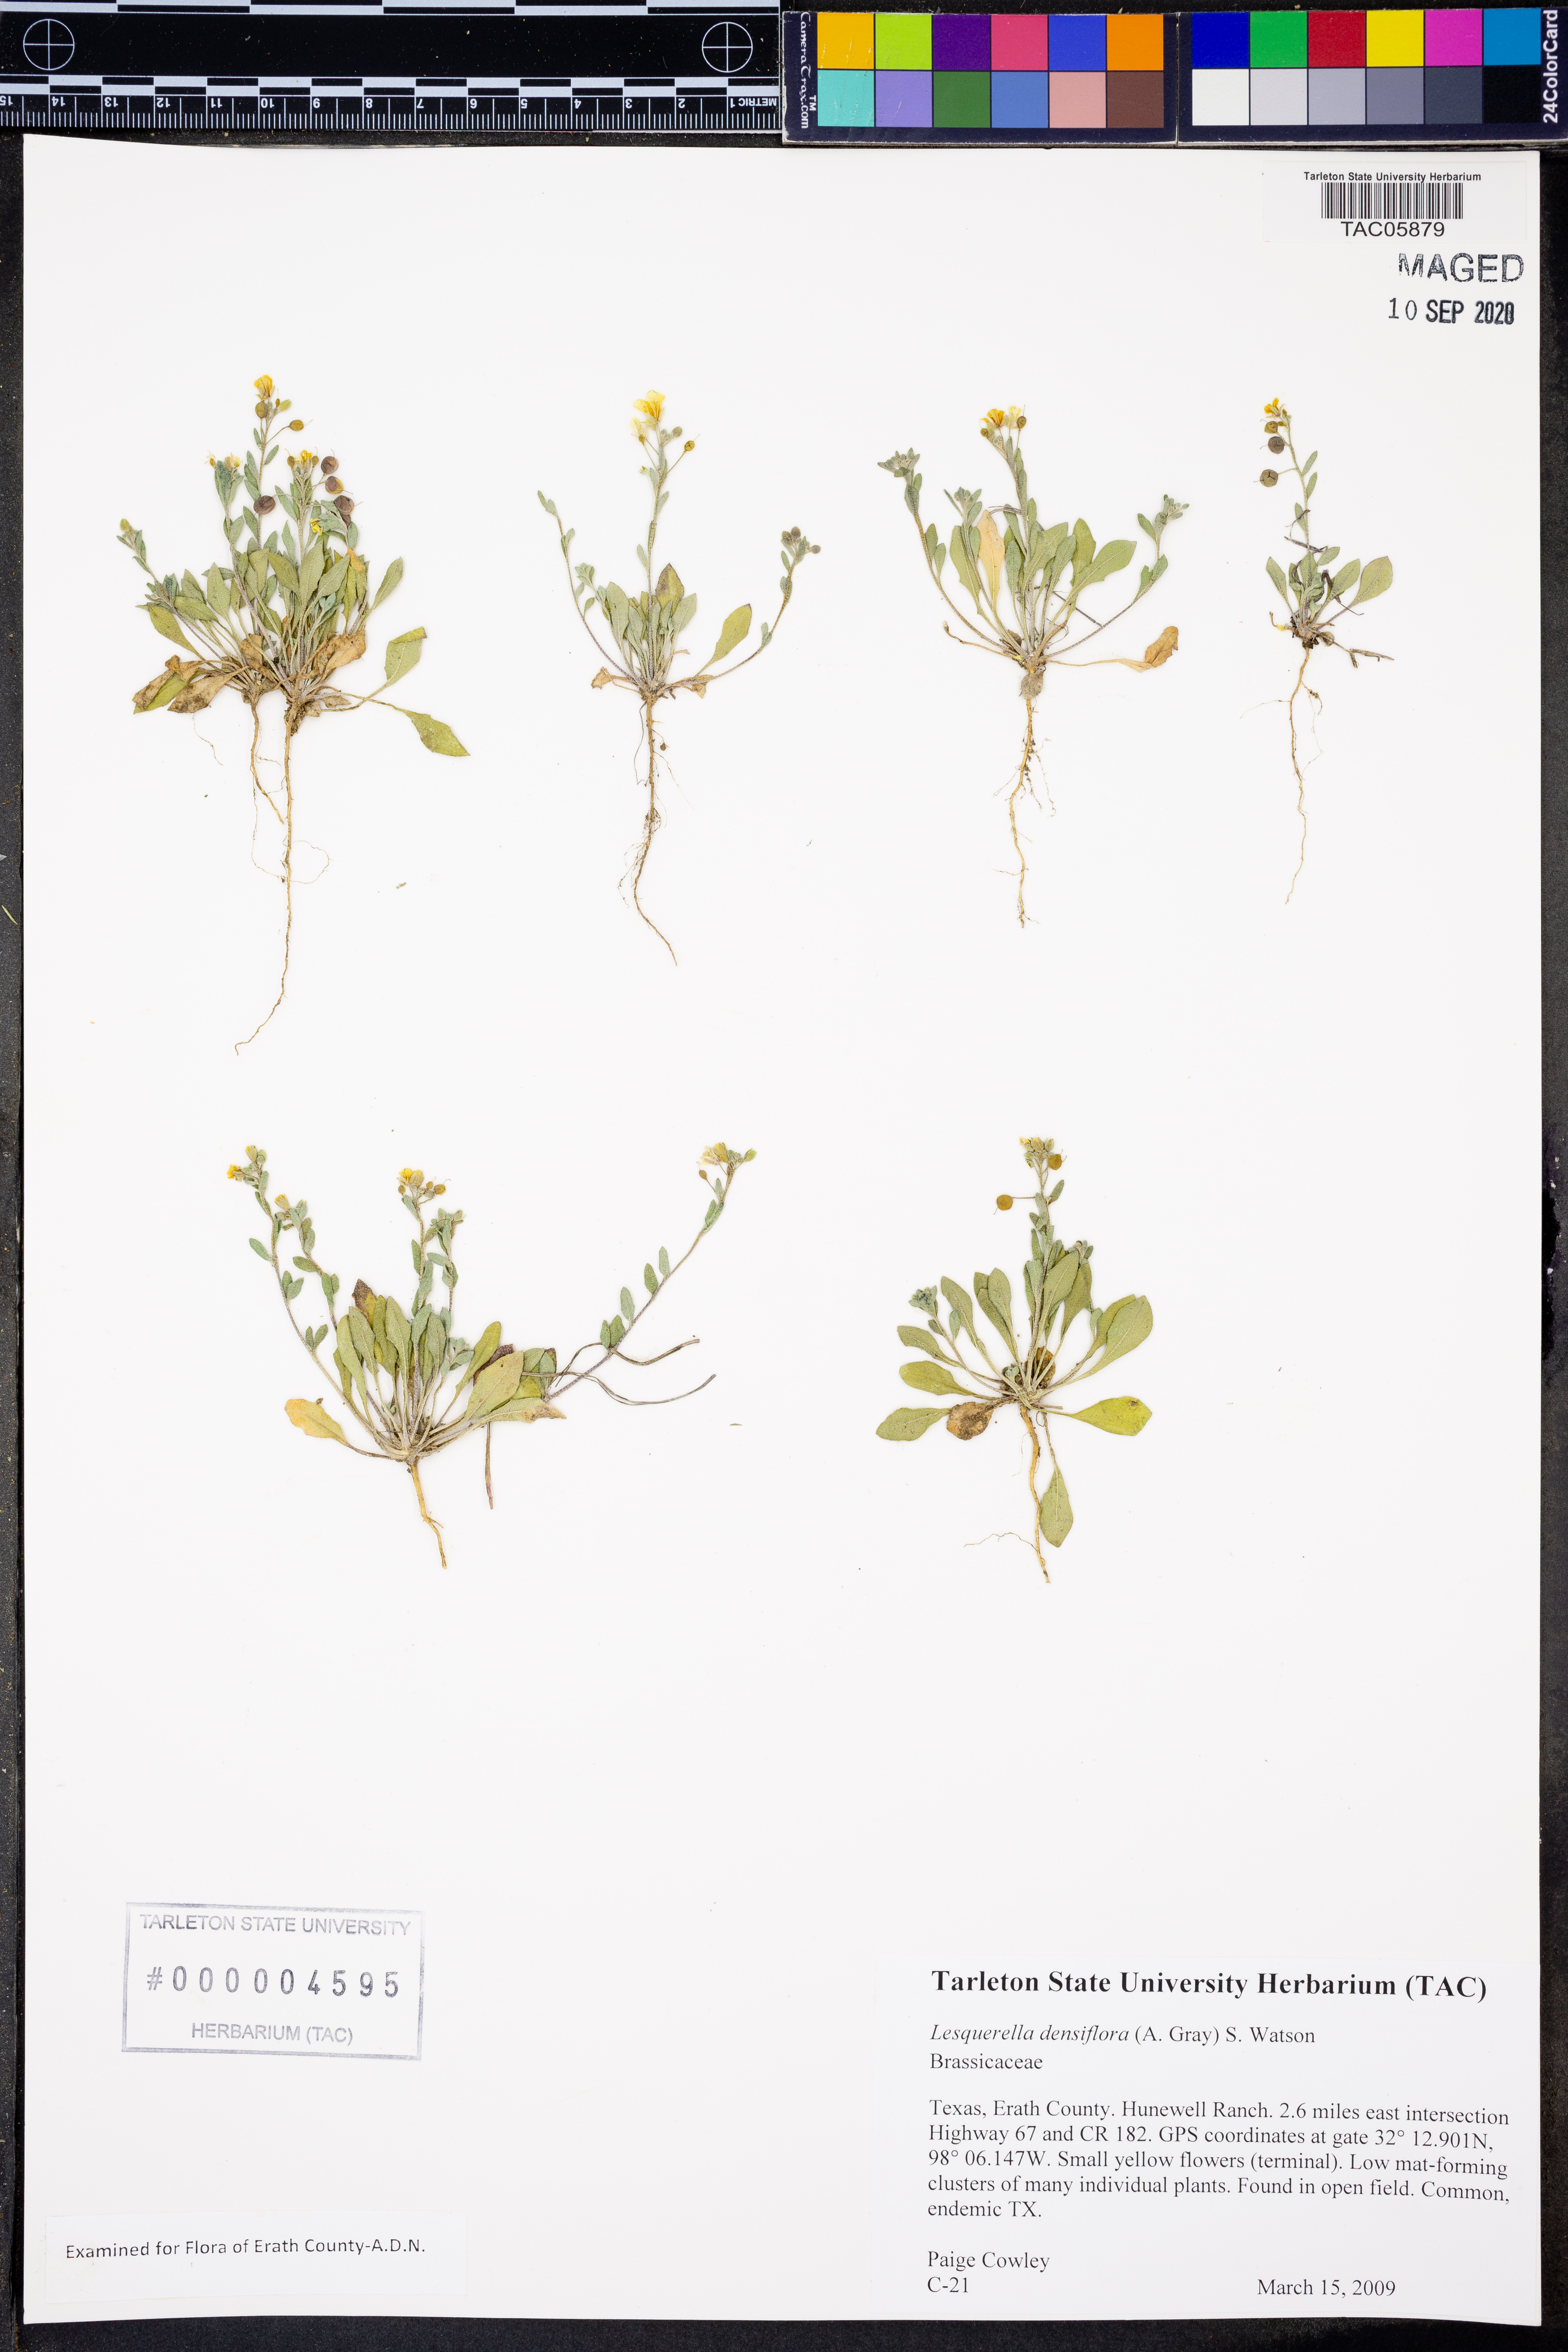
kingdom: Plantae
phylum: Tracheophyta
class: Magnoliopsida
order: Brassicales
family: Brassicaceae
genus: Physaria
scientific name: Physaria densiflora
